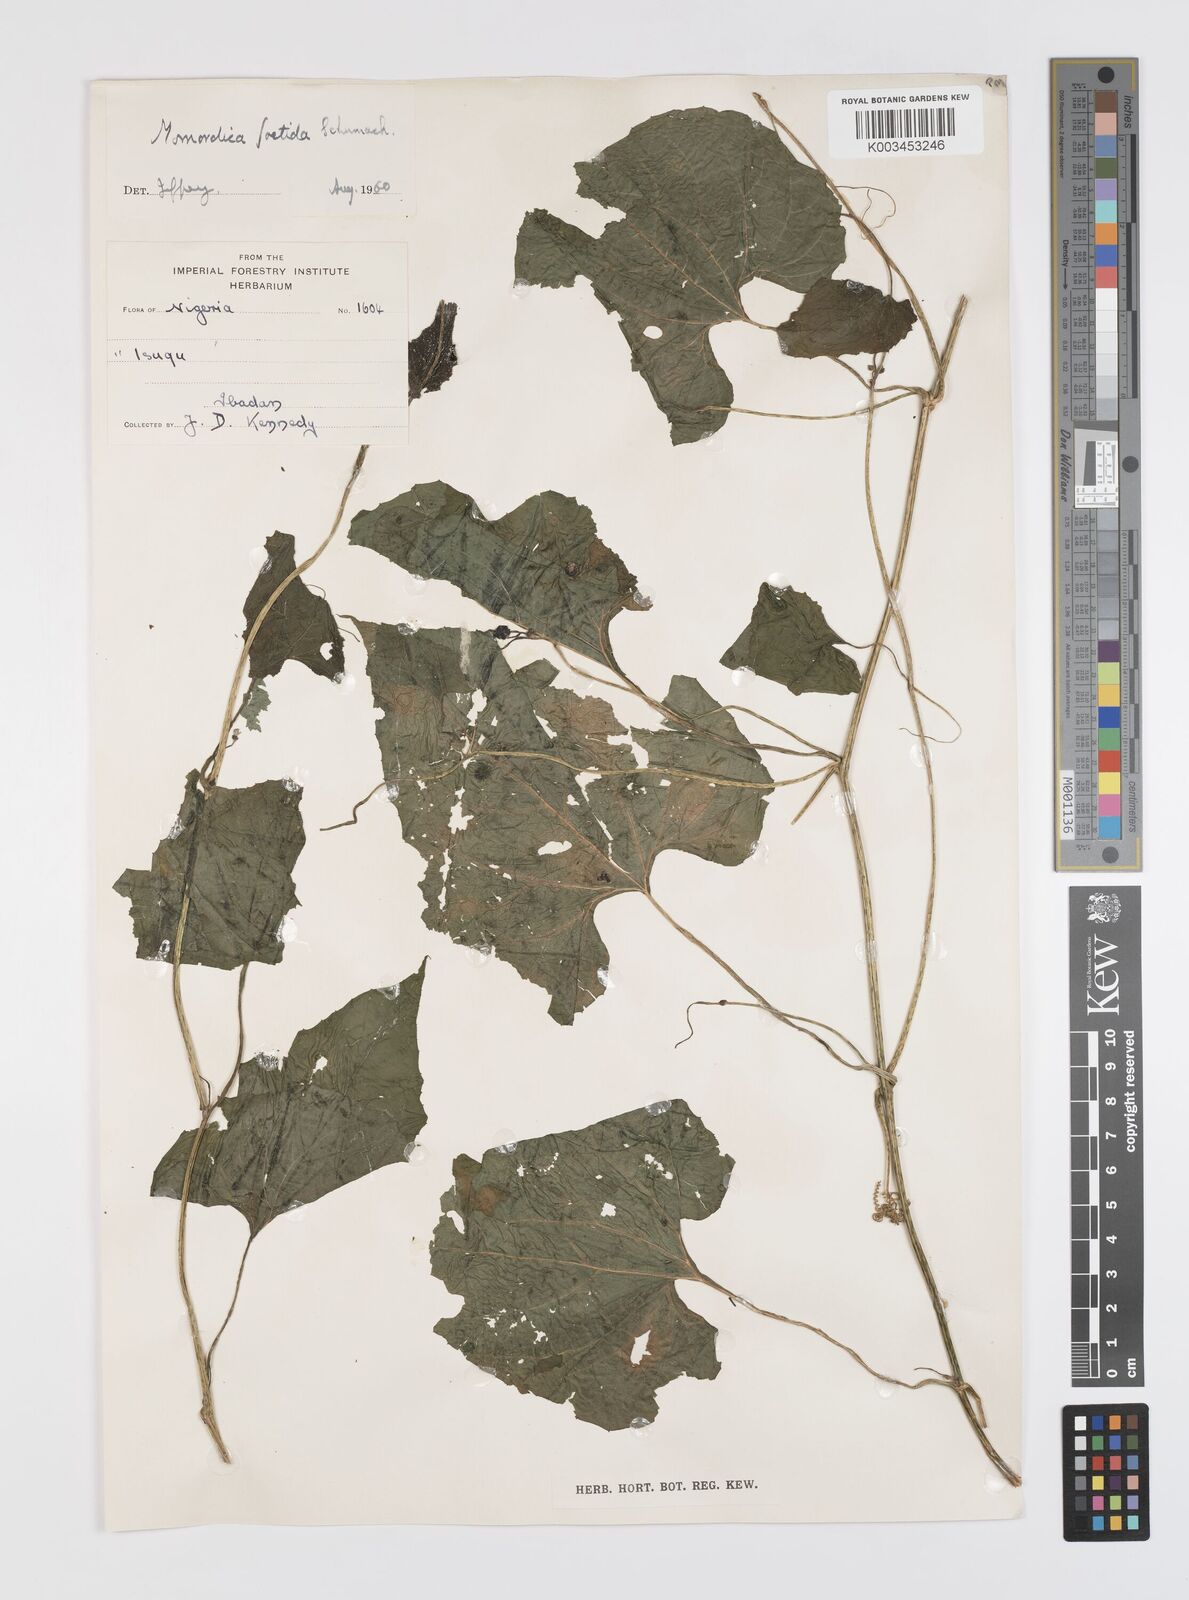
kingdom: Plantae
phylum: Tracheophyta
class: Magnoliopsida
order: Cucurbitales
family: Cucurbitaceae
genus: Momordica
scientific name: Momordica foetida
